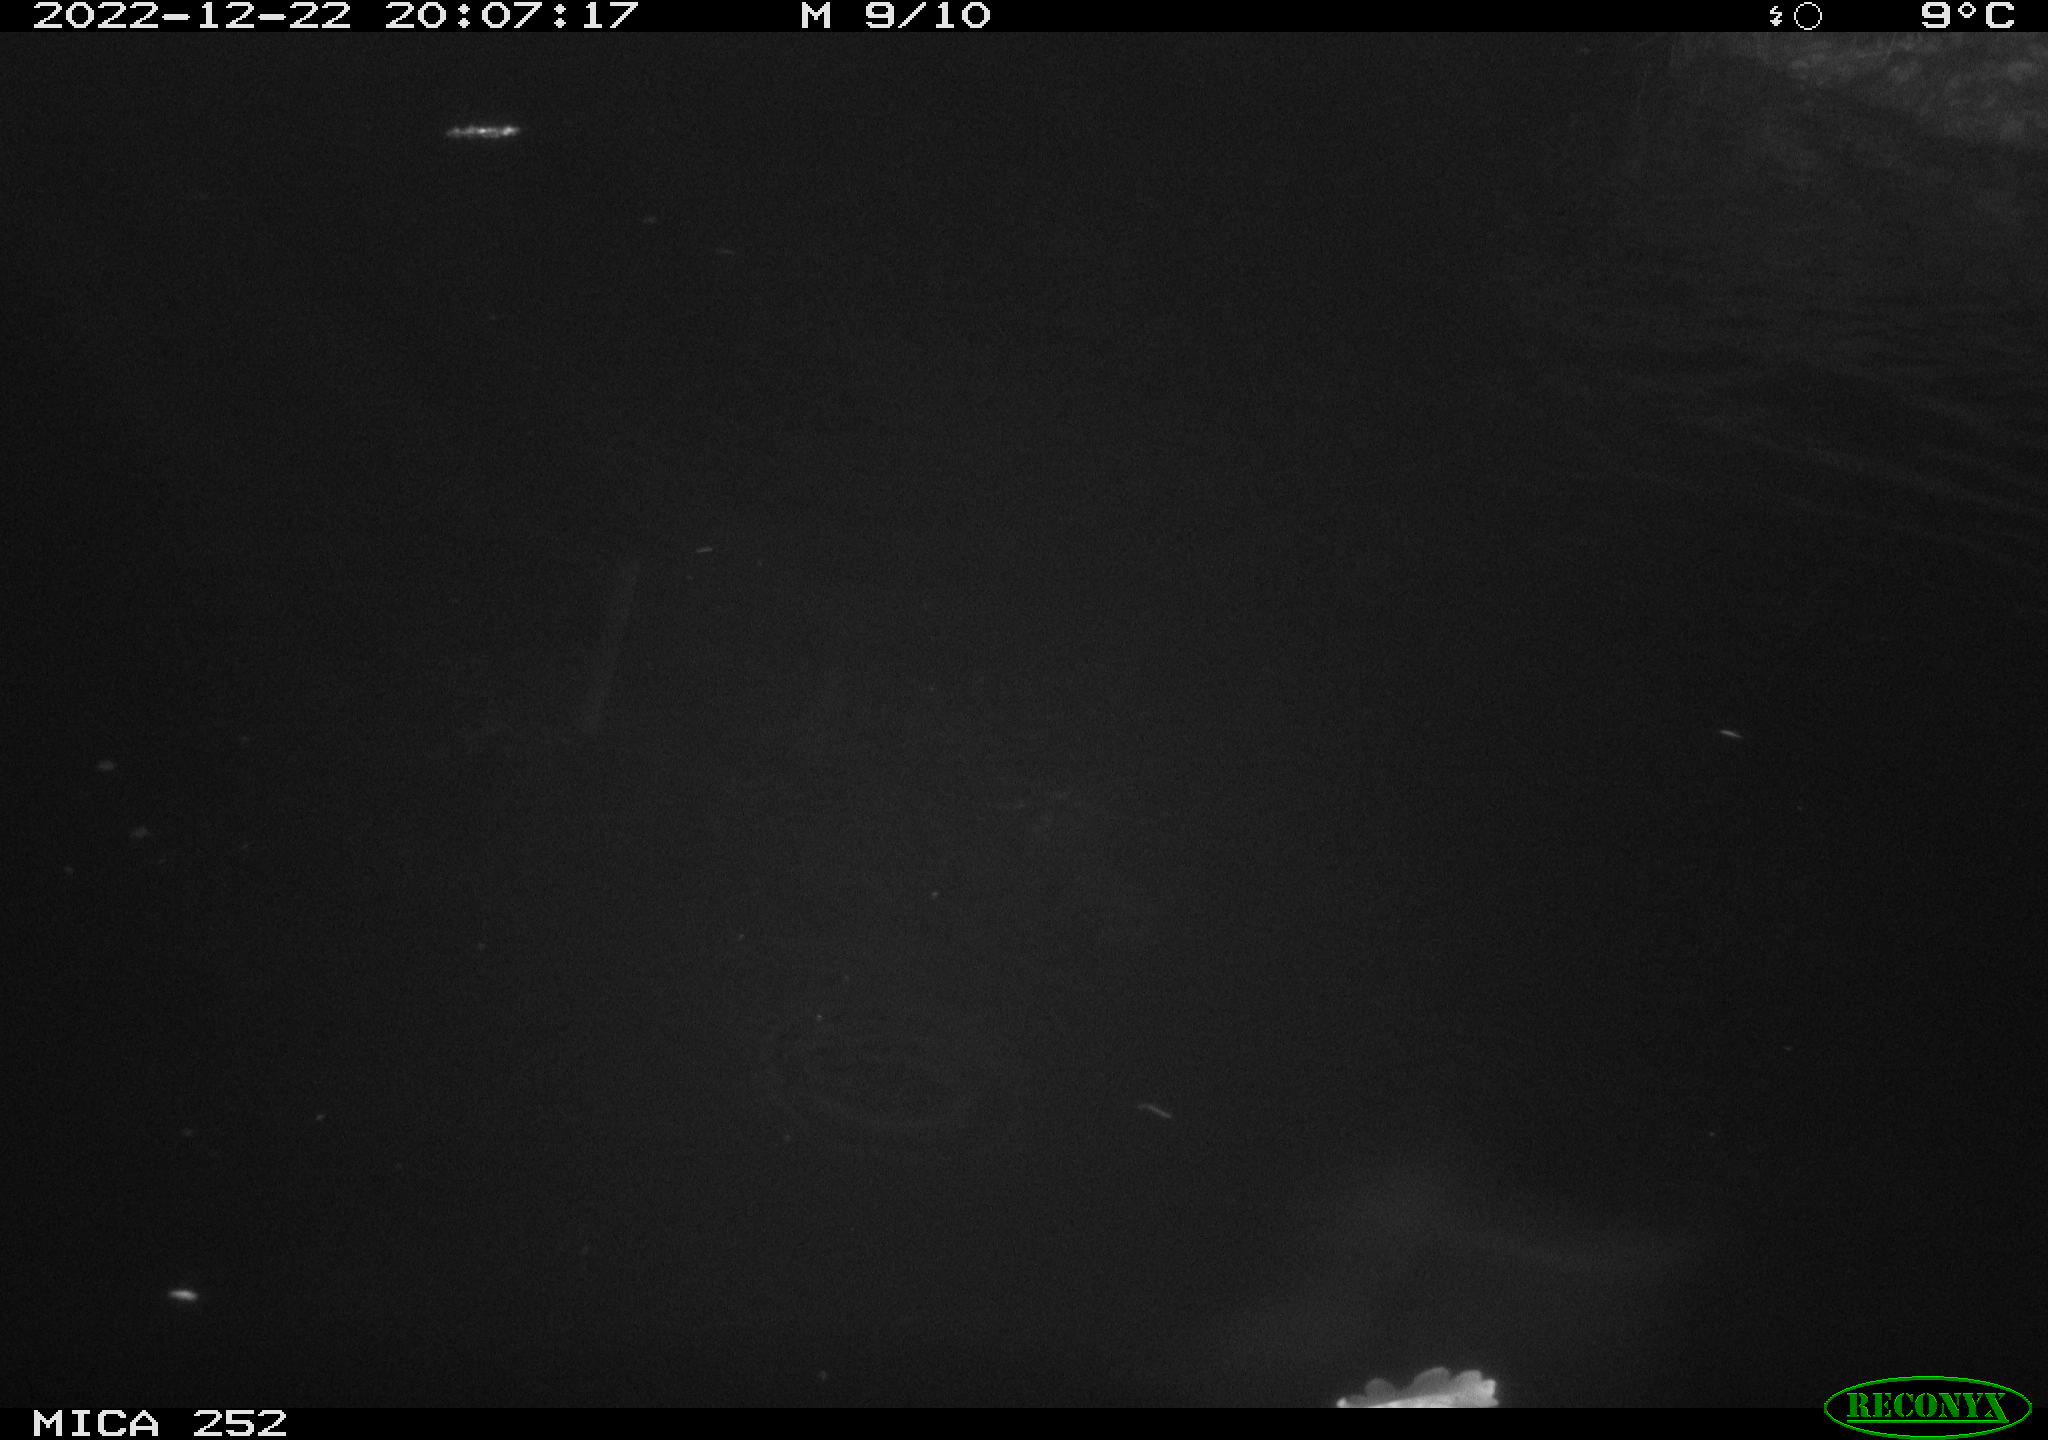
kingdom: Animalia
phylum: Chordata
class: Mammalia
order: Rodentia
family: Castoridae
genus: Castor
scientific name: Castor fiber
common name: Eurasian beaver
